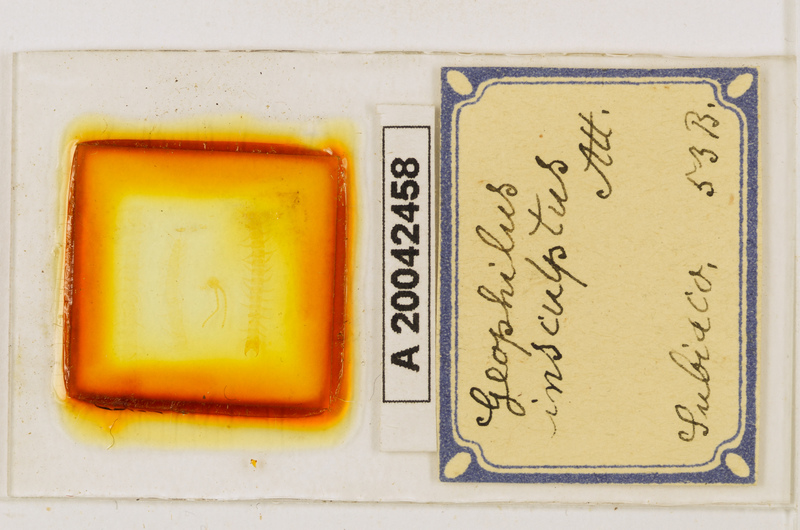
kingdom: Animalia
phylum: Arthropoda
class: Chilopoda
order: Geophilomorpha
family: Geophilidae
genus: Geophilus
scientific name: Geophilus insculptus
